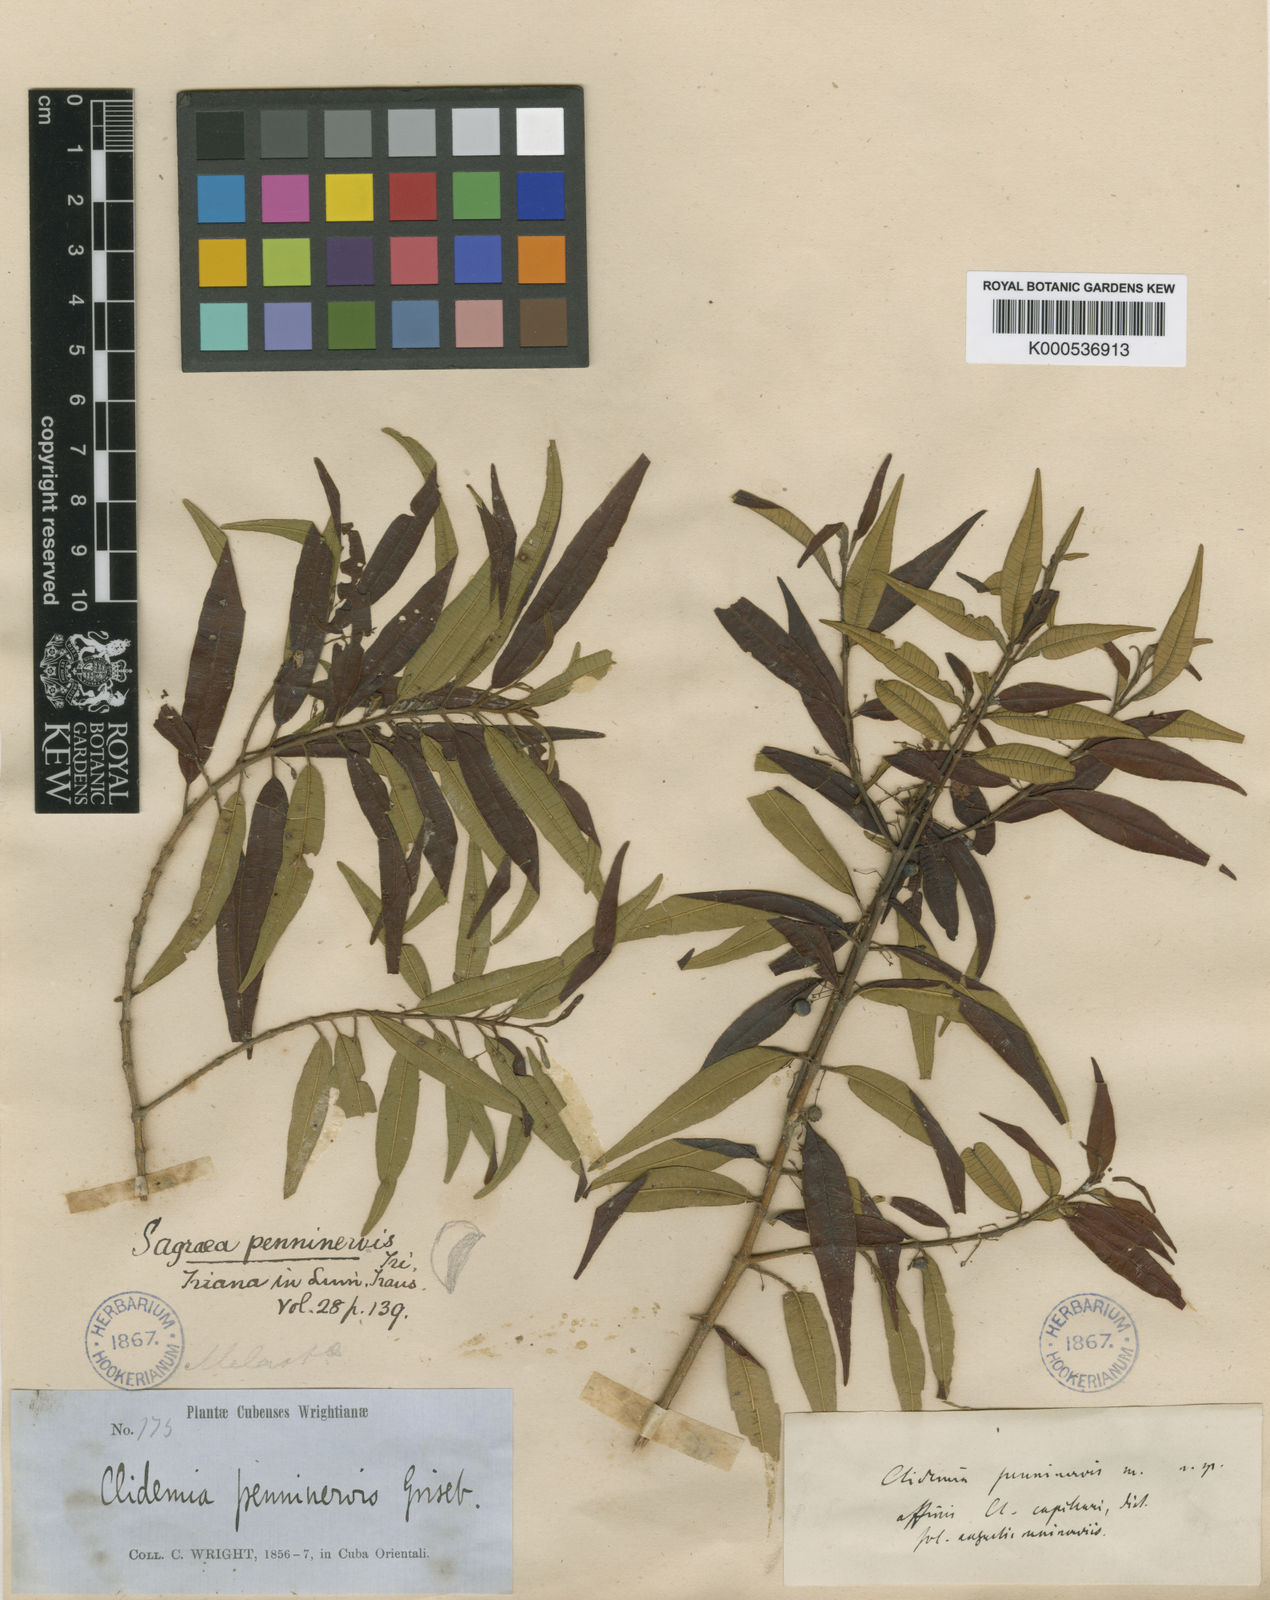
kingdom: Plantae
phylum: Tracheophyta
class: Magnoliopsida
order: Myrtales
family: Melastomataceae
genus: Miconia
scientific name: Miconia penninervis
